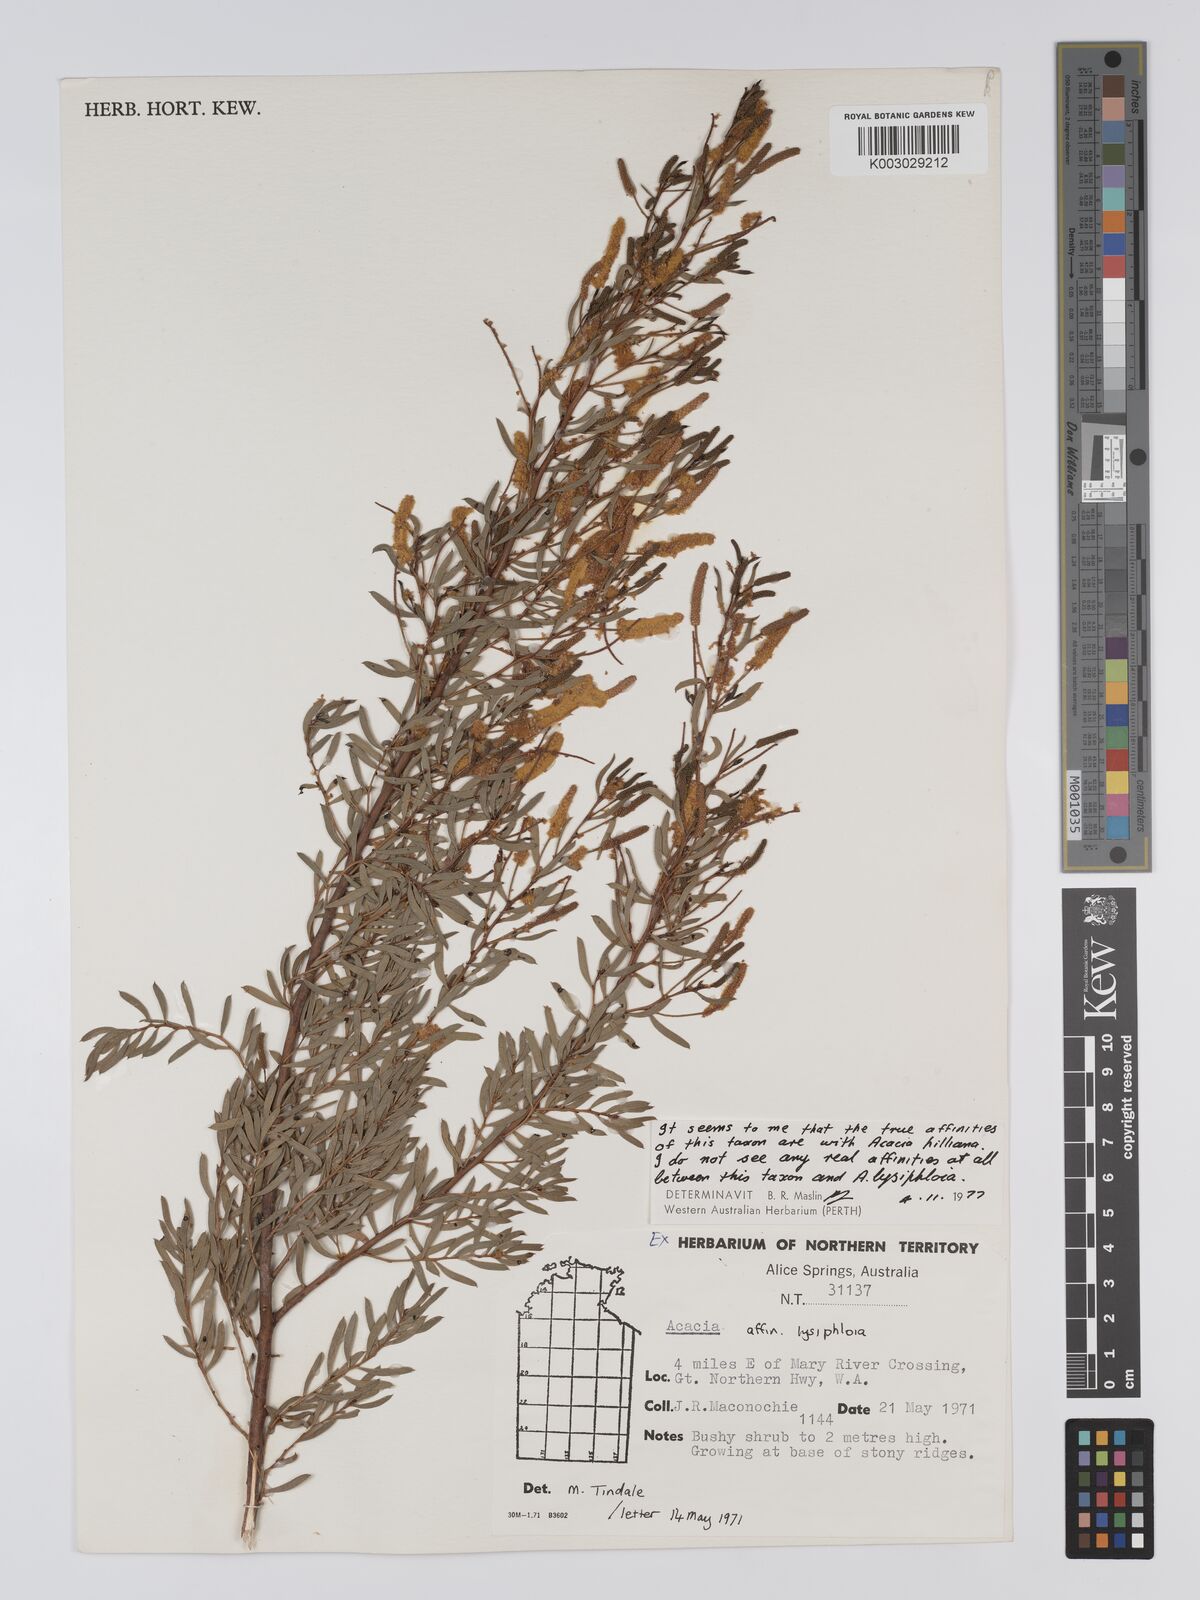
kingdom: Plantae
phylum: Tracheophyta
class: Magnoliopsida
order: Fabales
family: Fabaceae
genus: Acacia
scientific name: Acacia hilliana
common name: Hill's tabletop wattle
